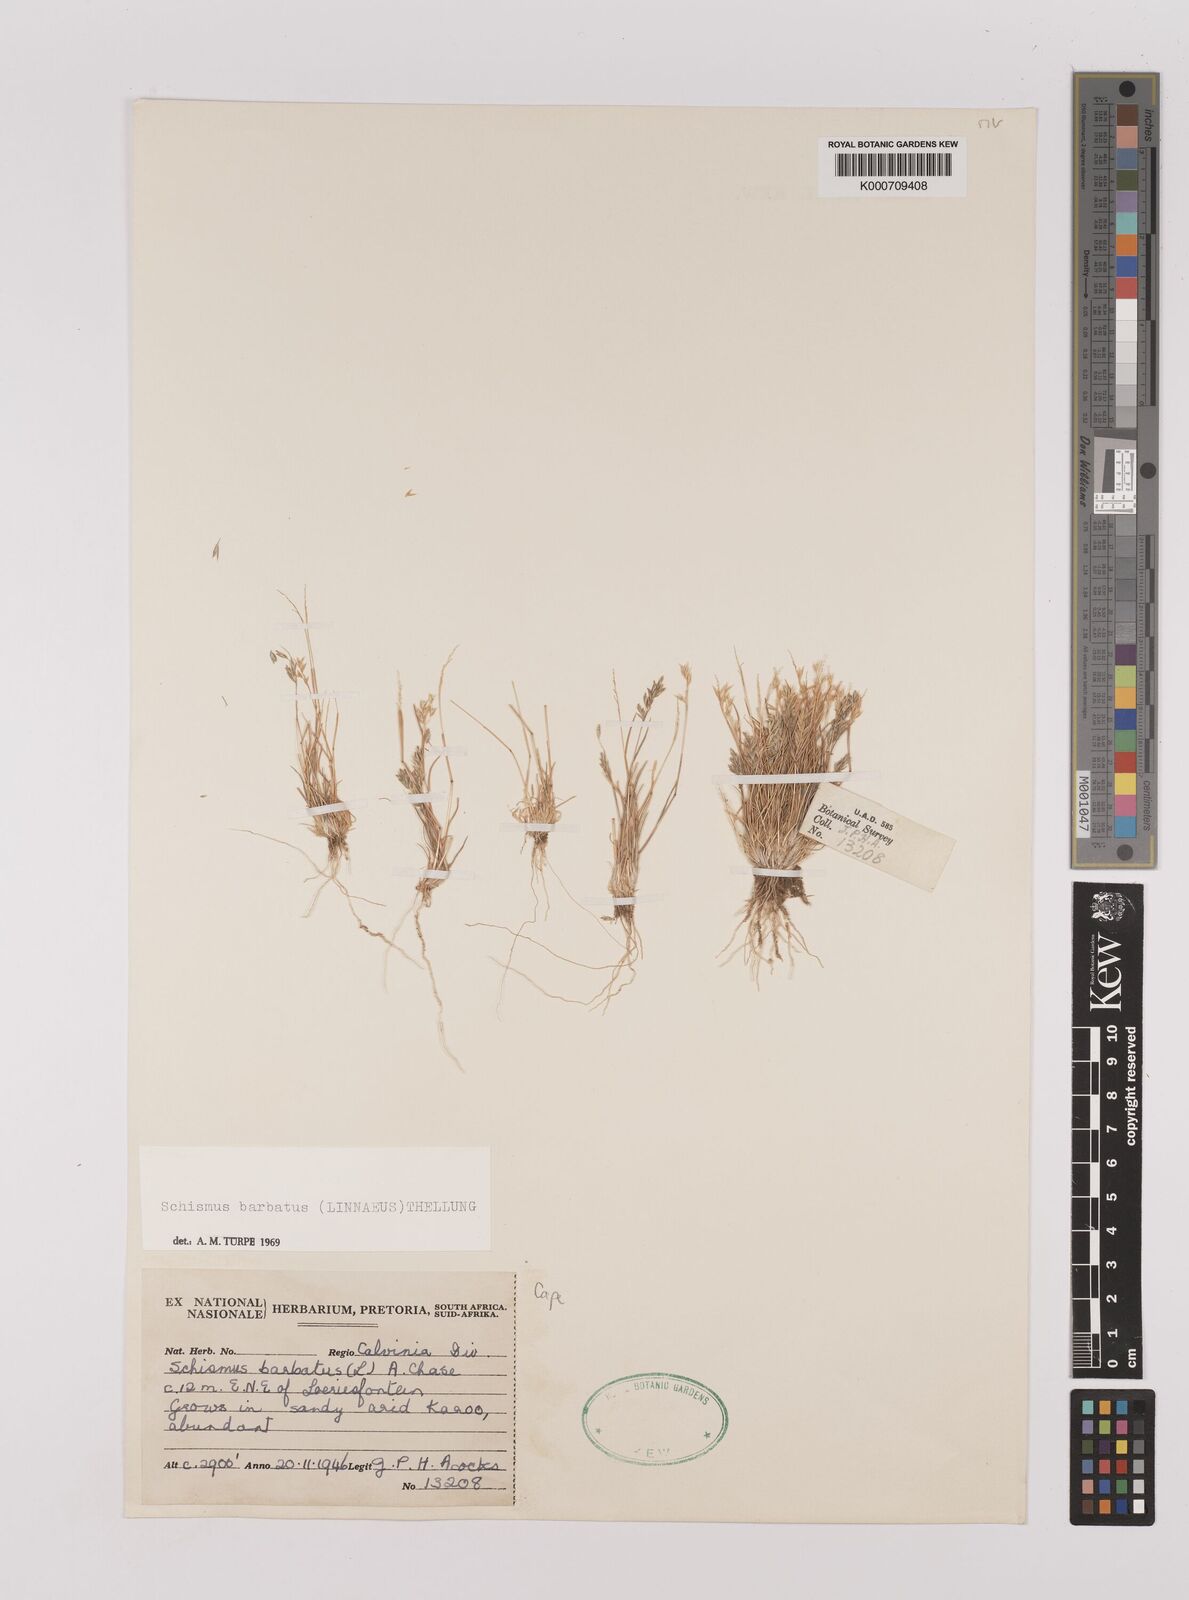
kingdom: Plantae
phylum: Tracheophyta
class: Liliopsida
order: Poales
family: Poaceae
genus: Schismus
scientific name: Schismus barbatus
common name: Kelch-grass
